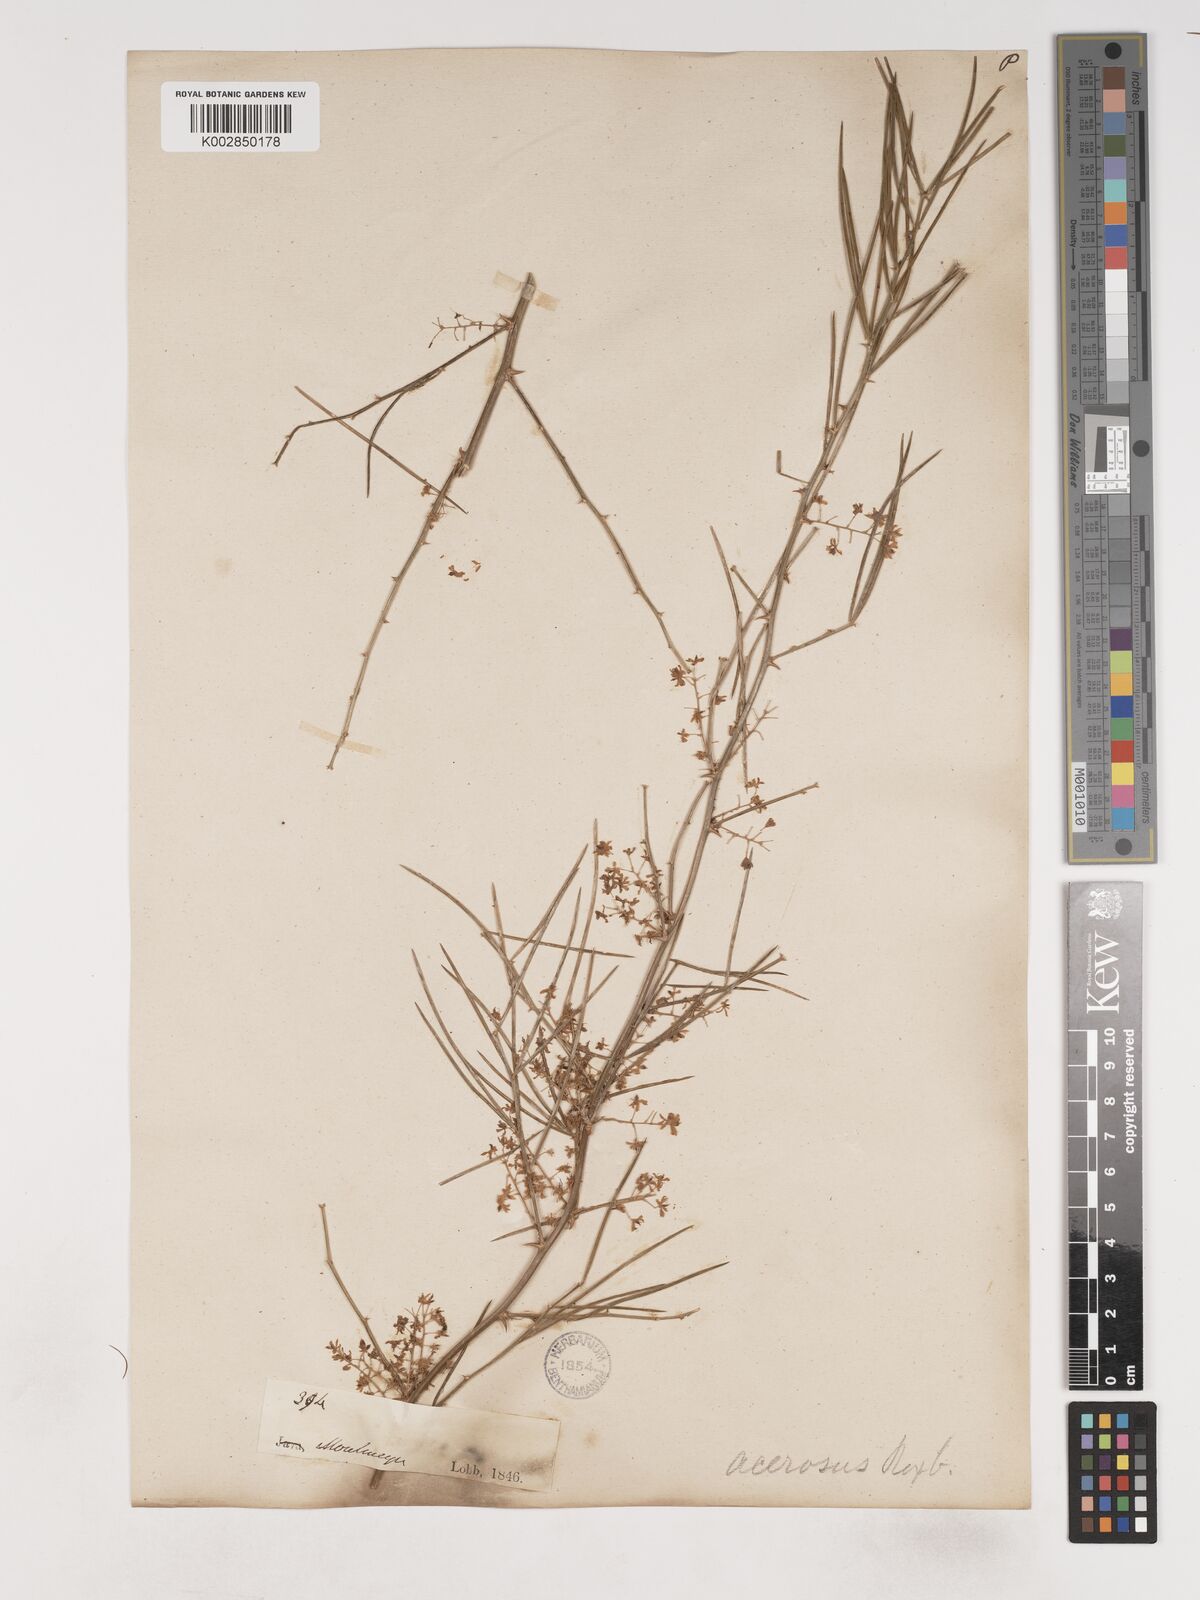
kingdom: Plantae
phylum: Tracheophyta
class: Liliopsida
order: Asparagales
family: Asparagaceae
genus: Asparagus
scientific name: Asparagus racemosus
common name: Asparagus-fern
